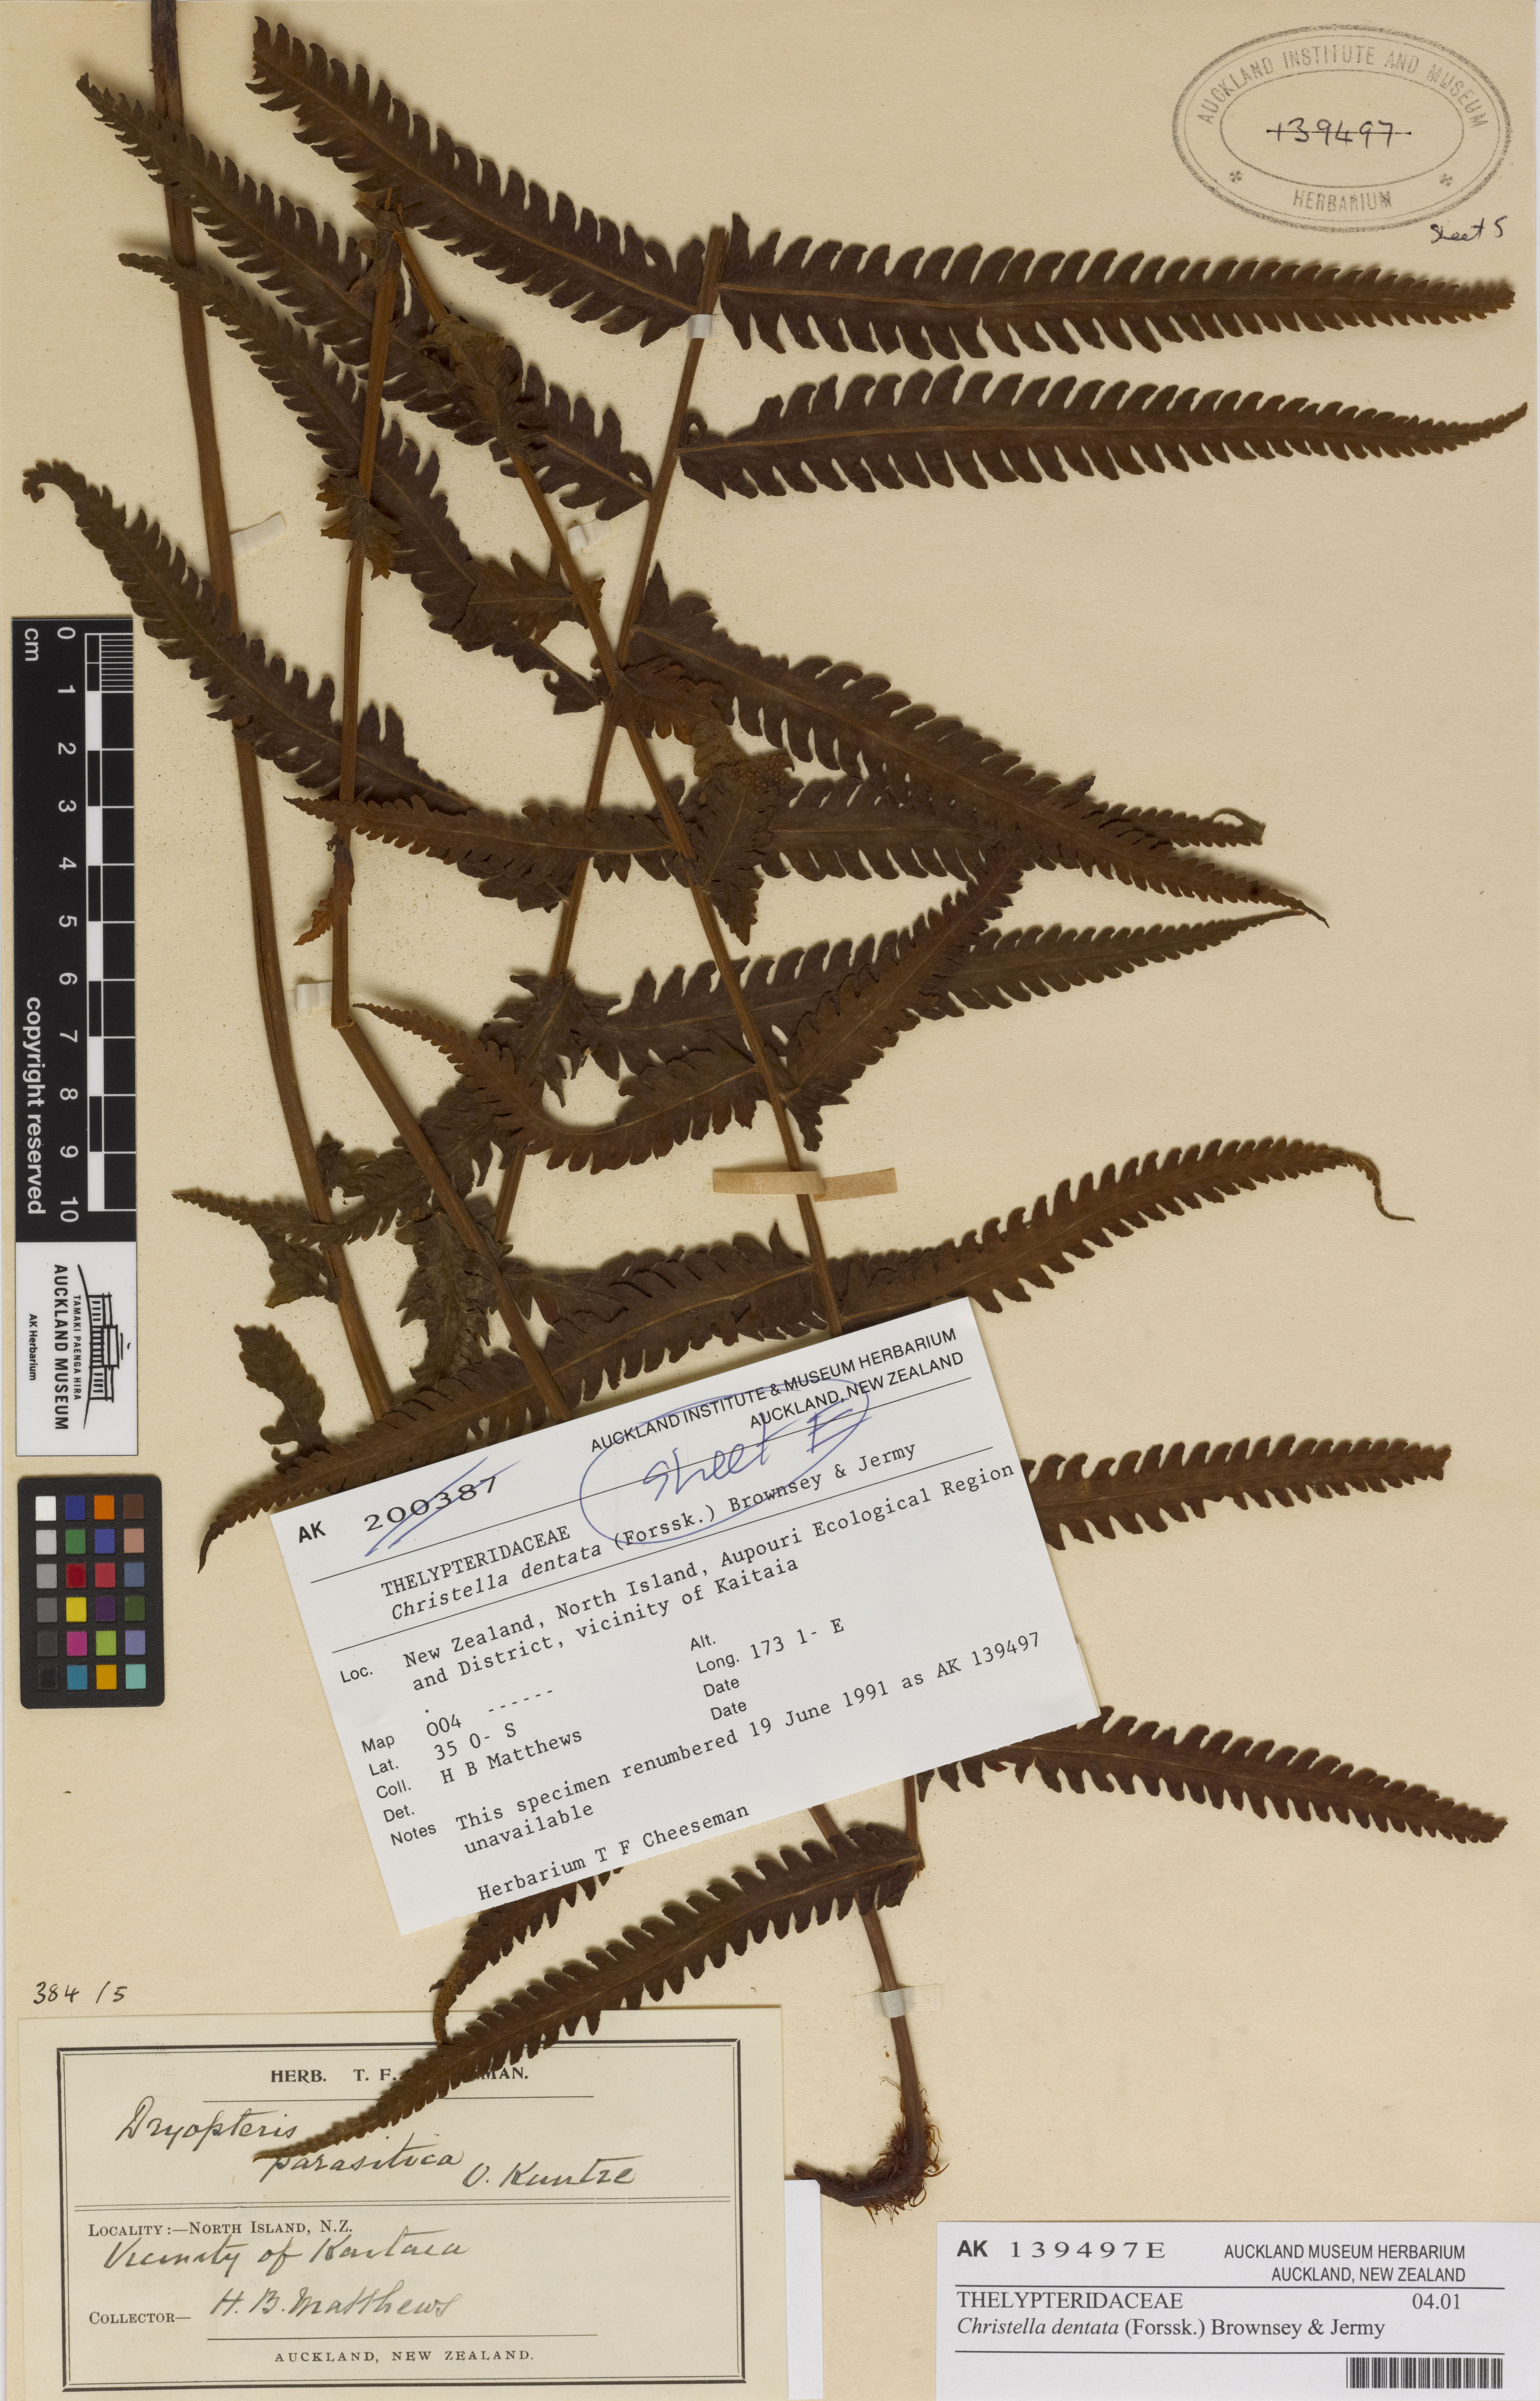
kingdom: Plantae
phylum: Tracheophyta
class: Polypodiopsida
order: Polypodiales
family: Thelypteridaceae
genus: Christella
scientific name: Christella dentata
